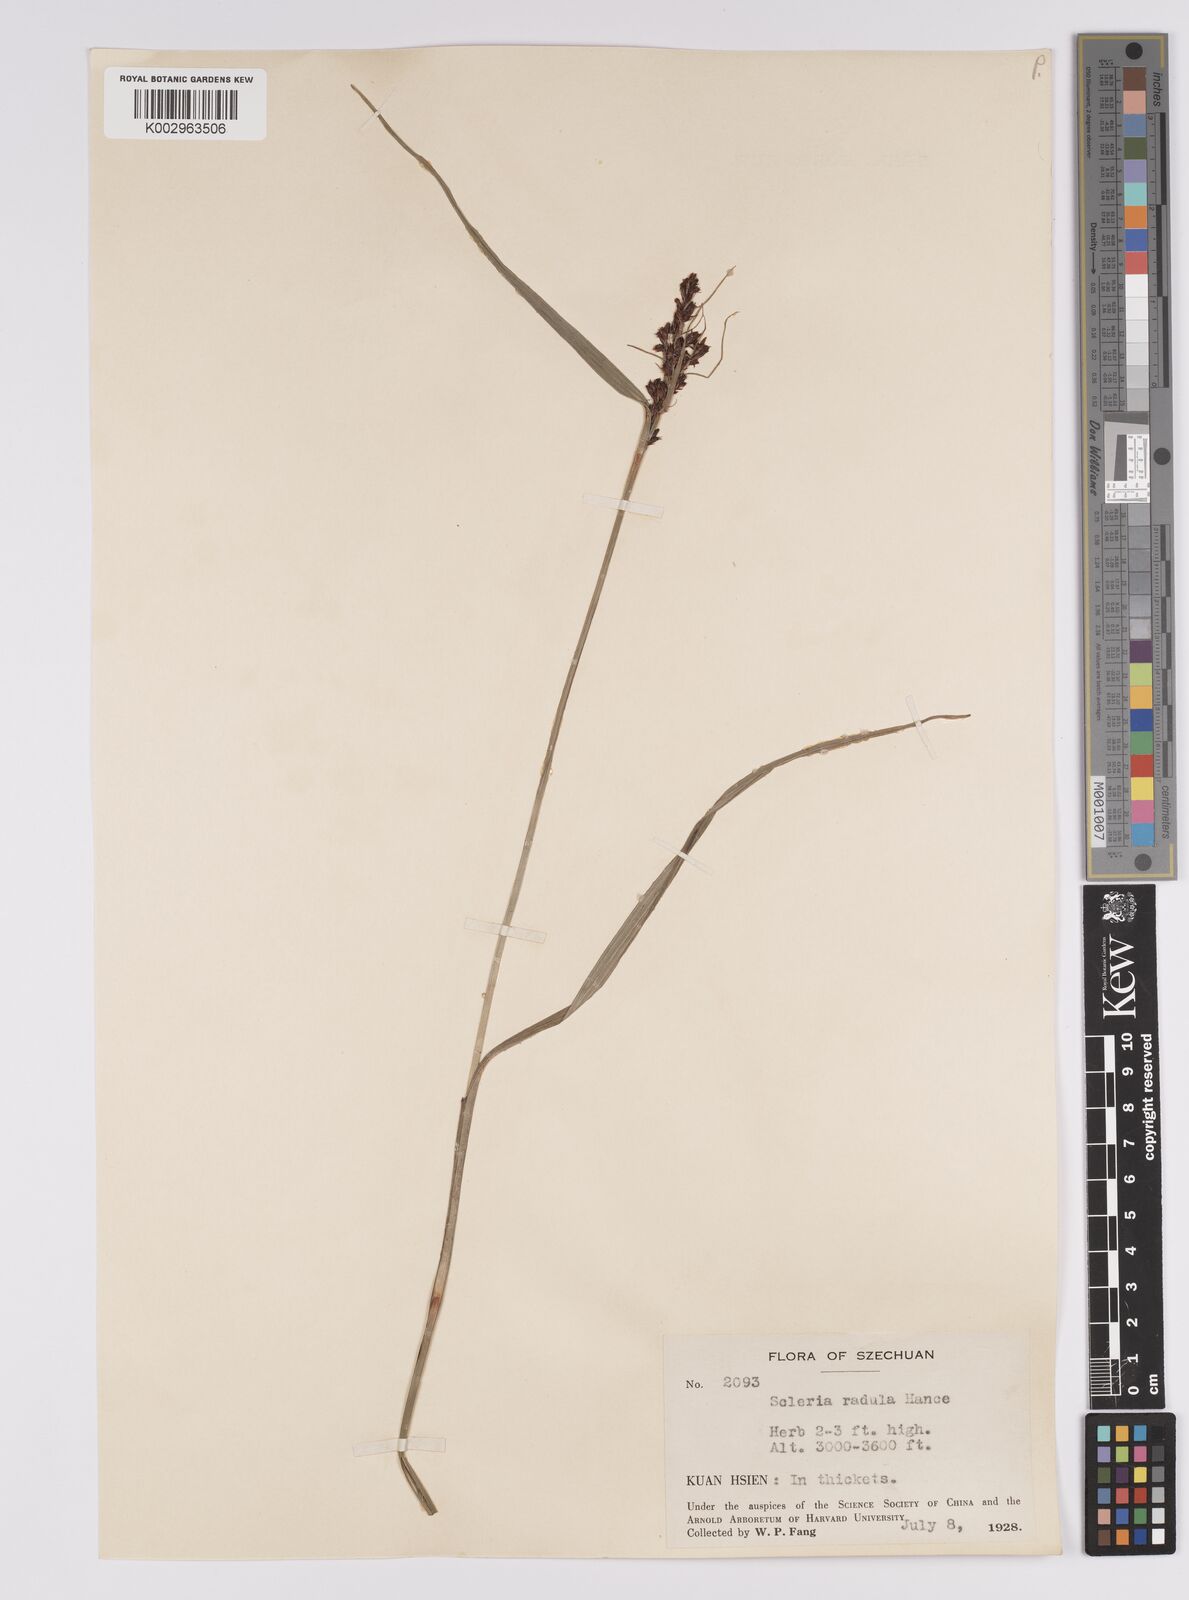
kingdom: Plantae
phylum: Tracheophyta
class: Liliopsida
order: Poales
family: Cyperaceae
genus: Scleria
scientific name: Scleria radula
